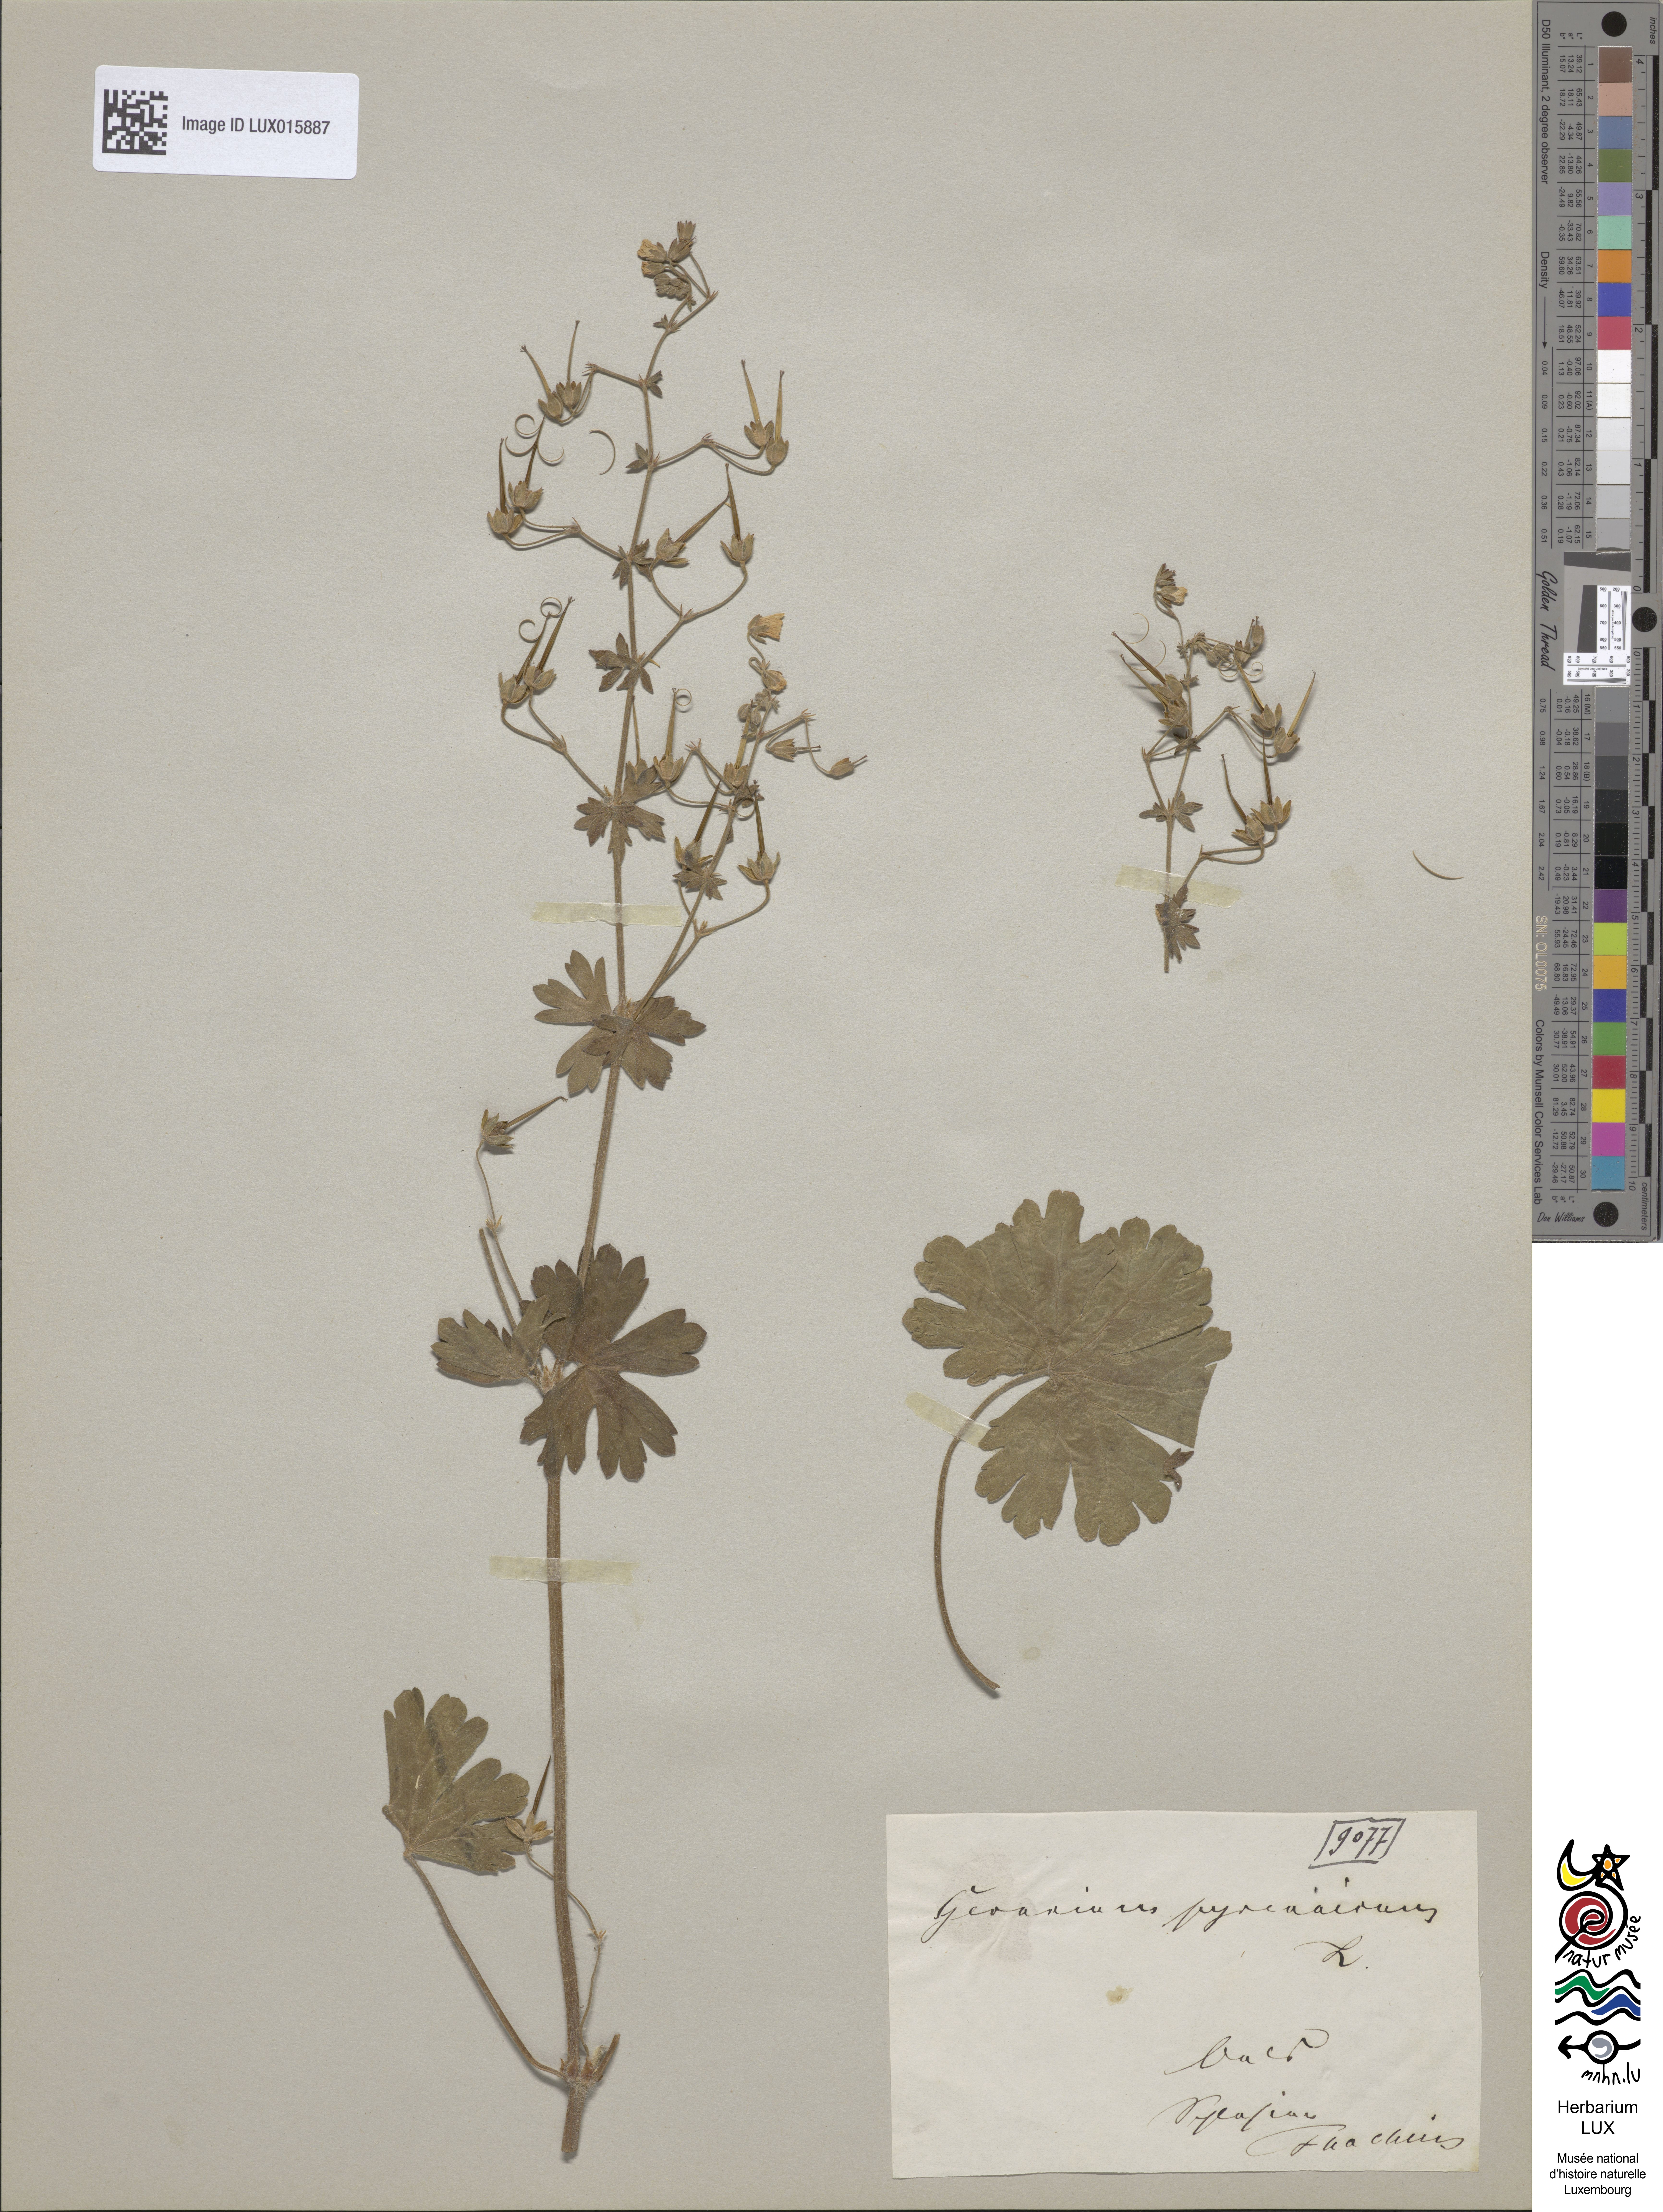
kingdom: Plantae
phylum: Tracheophyta
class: Magnoliopsida
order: Geraniales
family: Geraniaceae
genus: Geranium
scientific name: Geranium pyrenaicum
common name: Hedgerow crane's-bill
